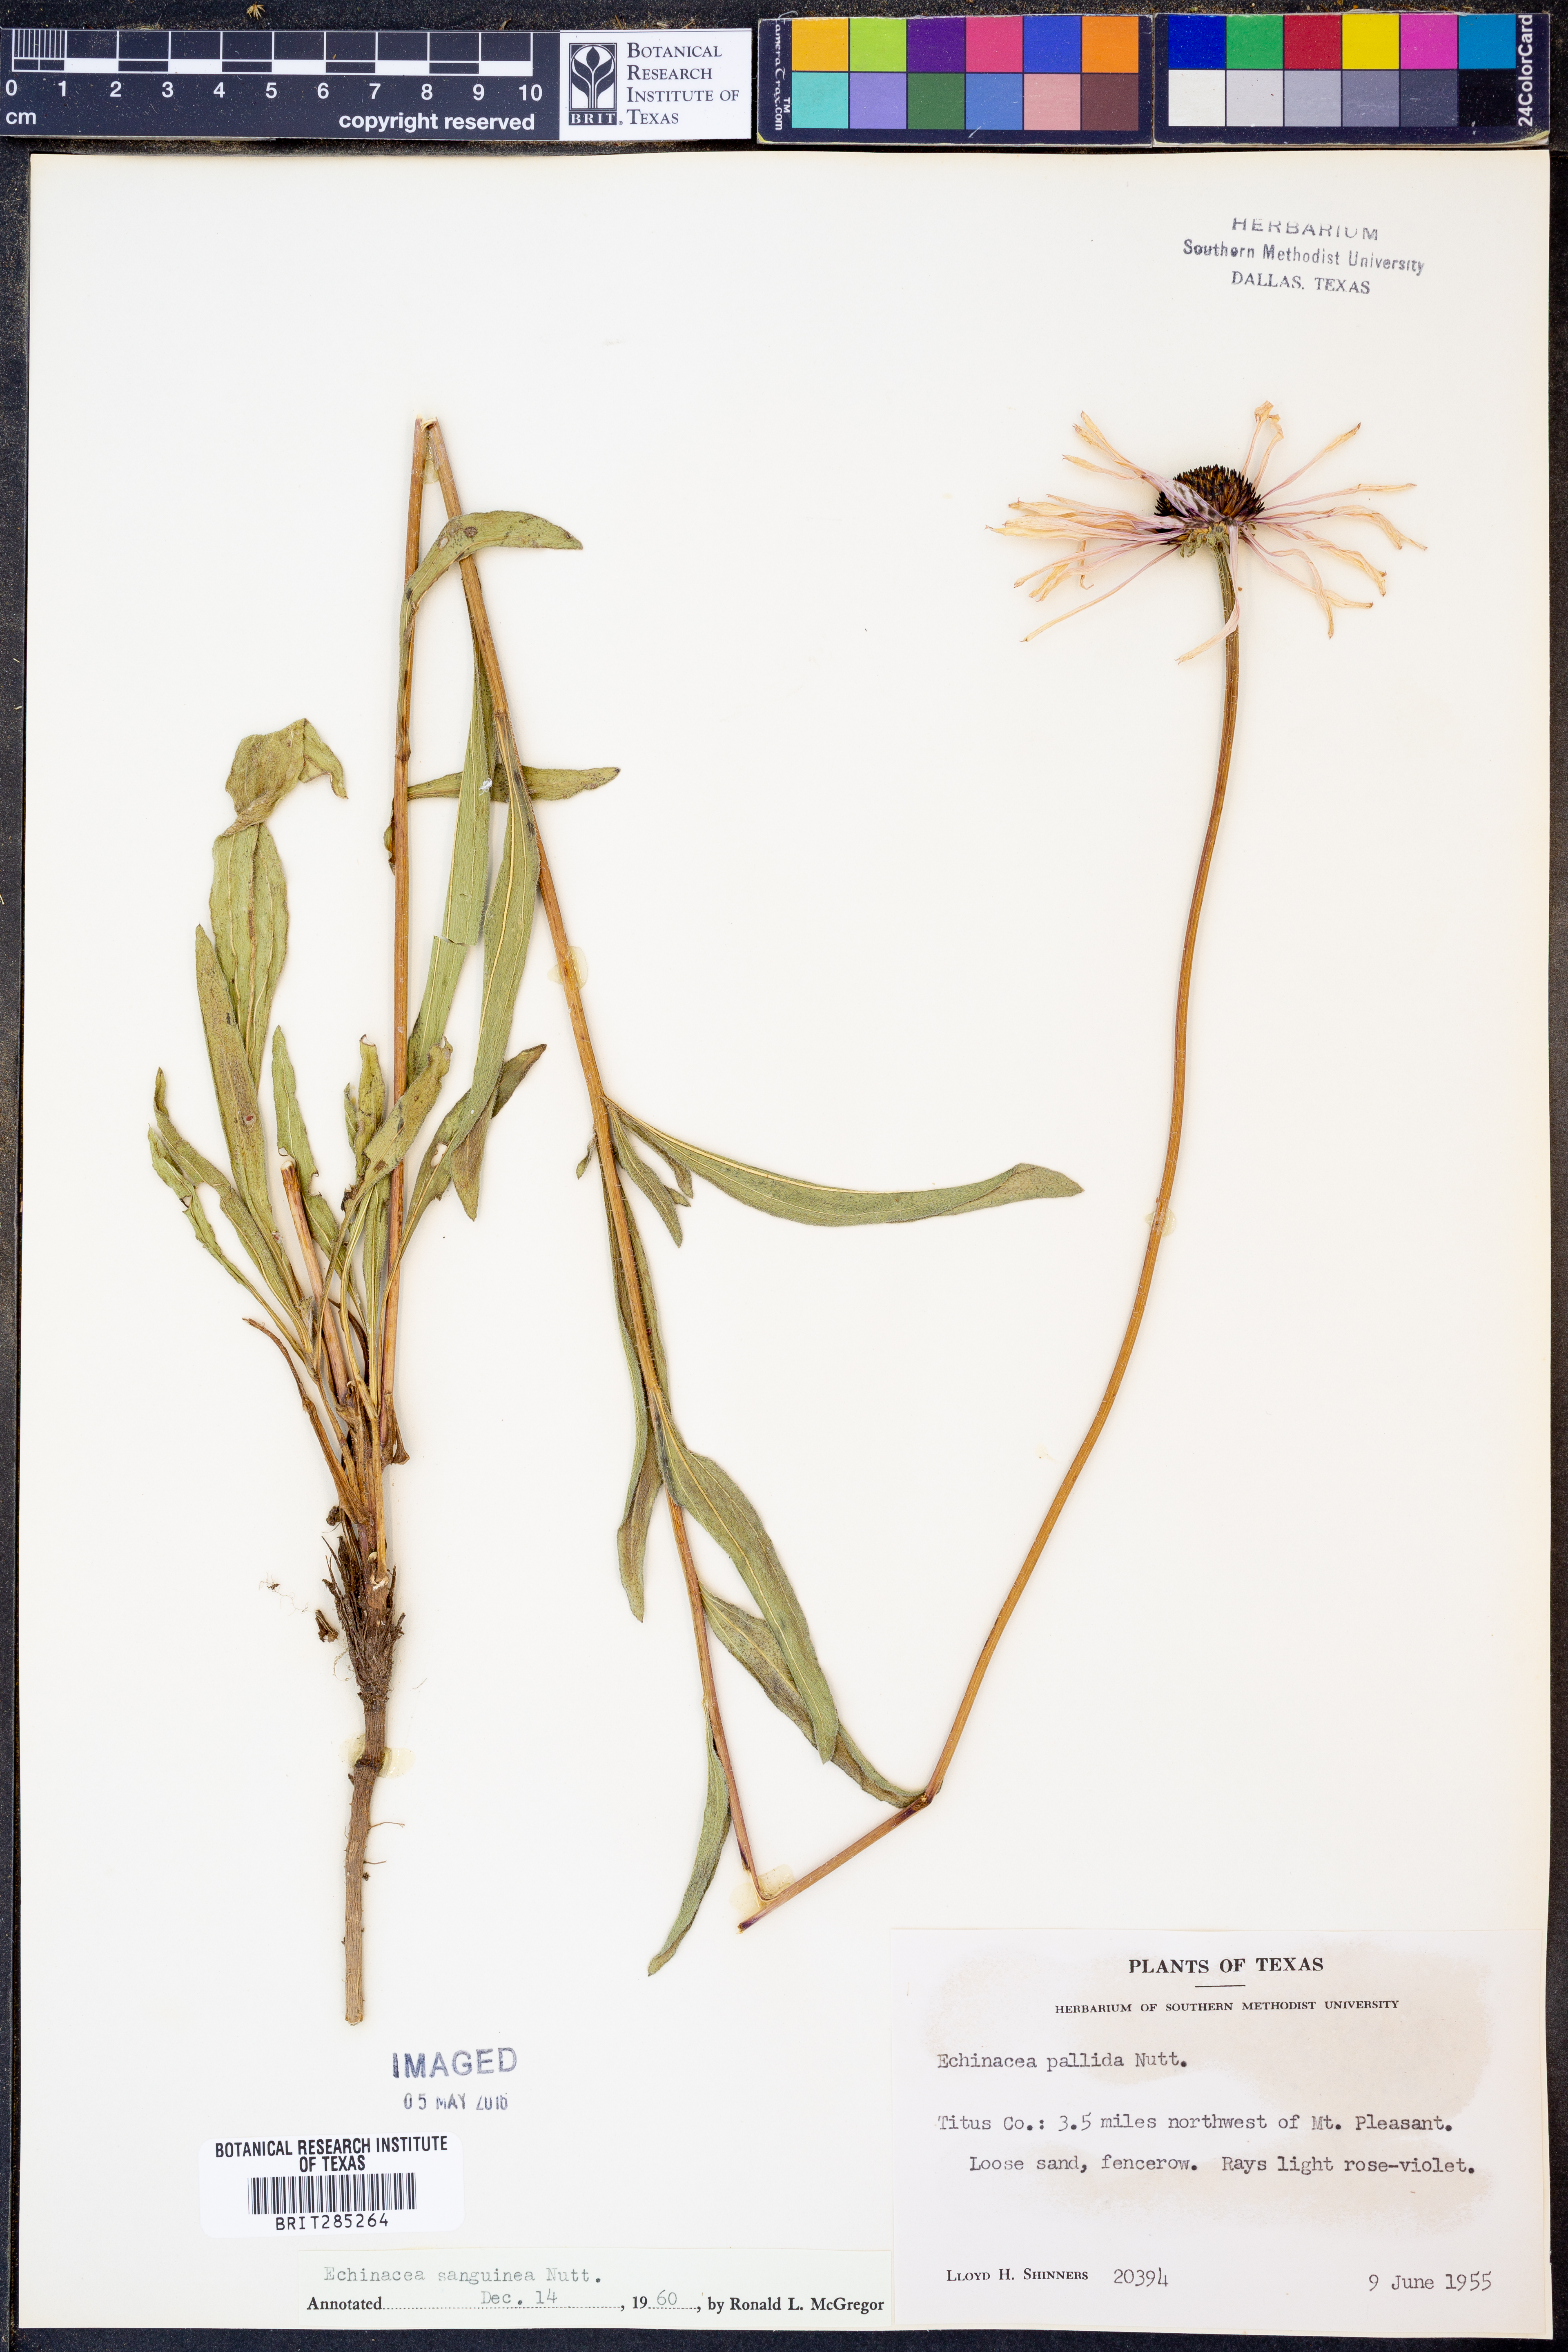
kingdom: Plantae
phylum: Tracheophyta
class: Magnoliopsida
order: Asterales
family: Asteraceae
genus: Echinacea
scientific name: Echinacea sanguinea
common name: Sanguine purple-coneflower
